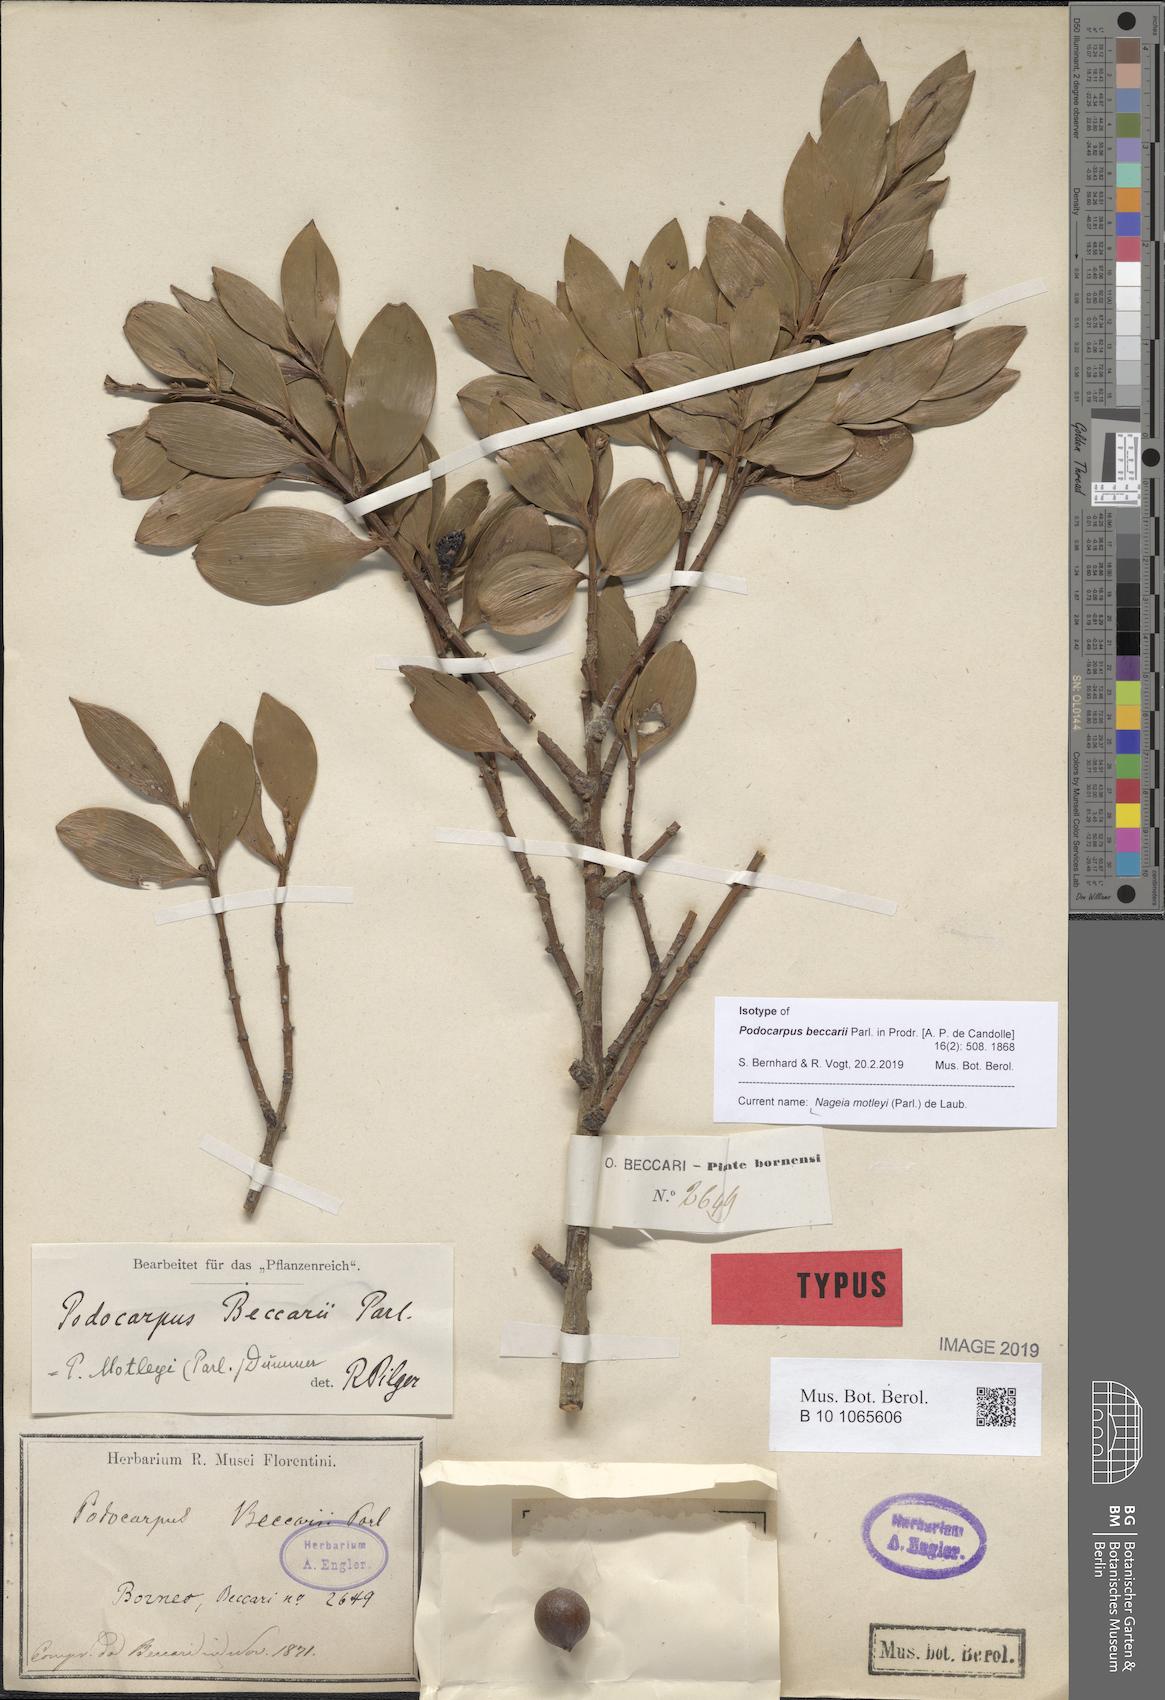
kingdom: Plantae
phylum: Tracheophyta
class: Pinopsida
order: Pinales
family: Podocarpaceae
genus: Nageia
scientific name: Nageia motleyi
